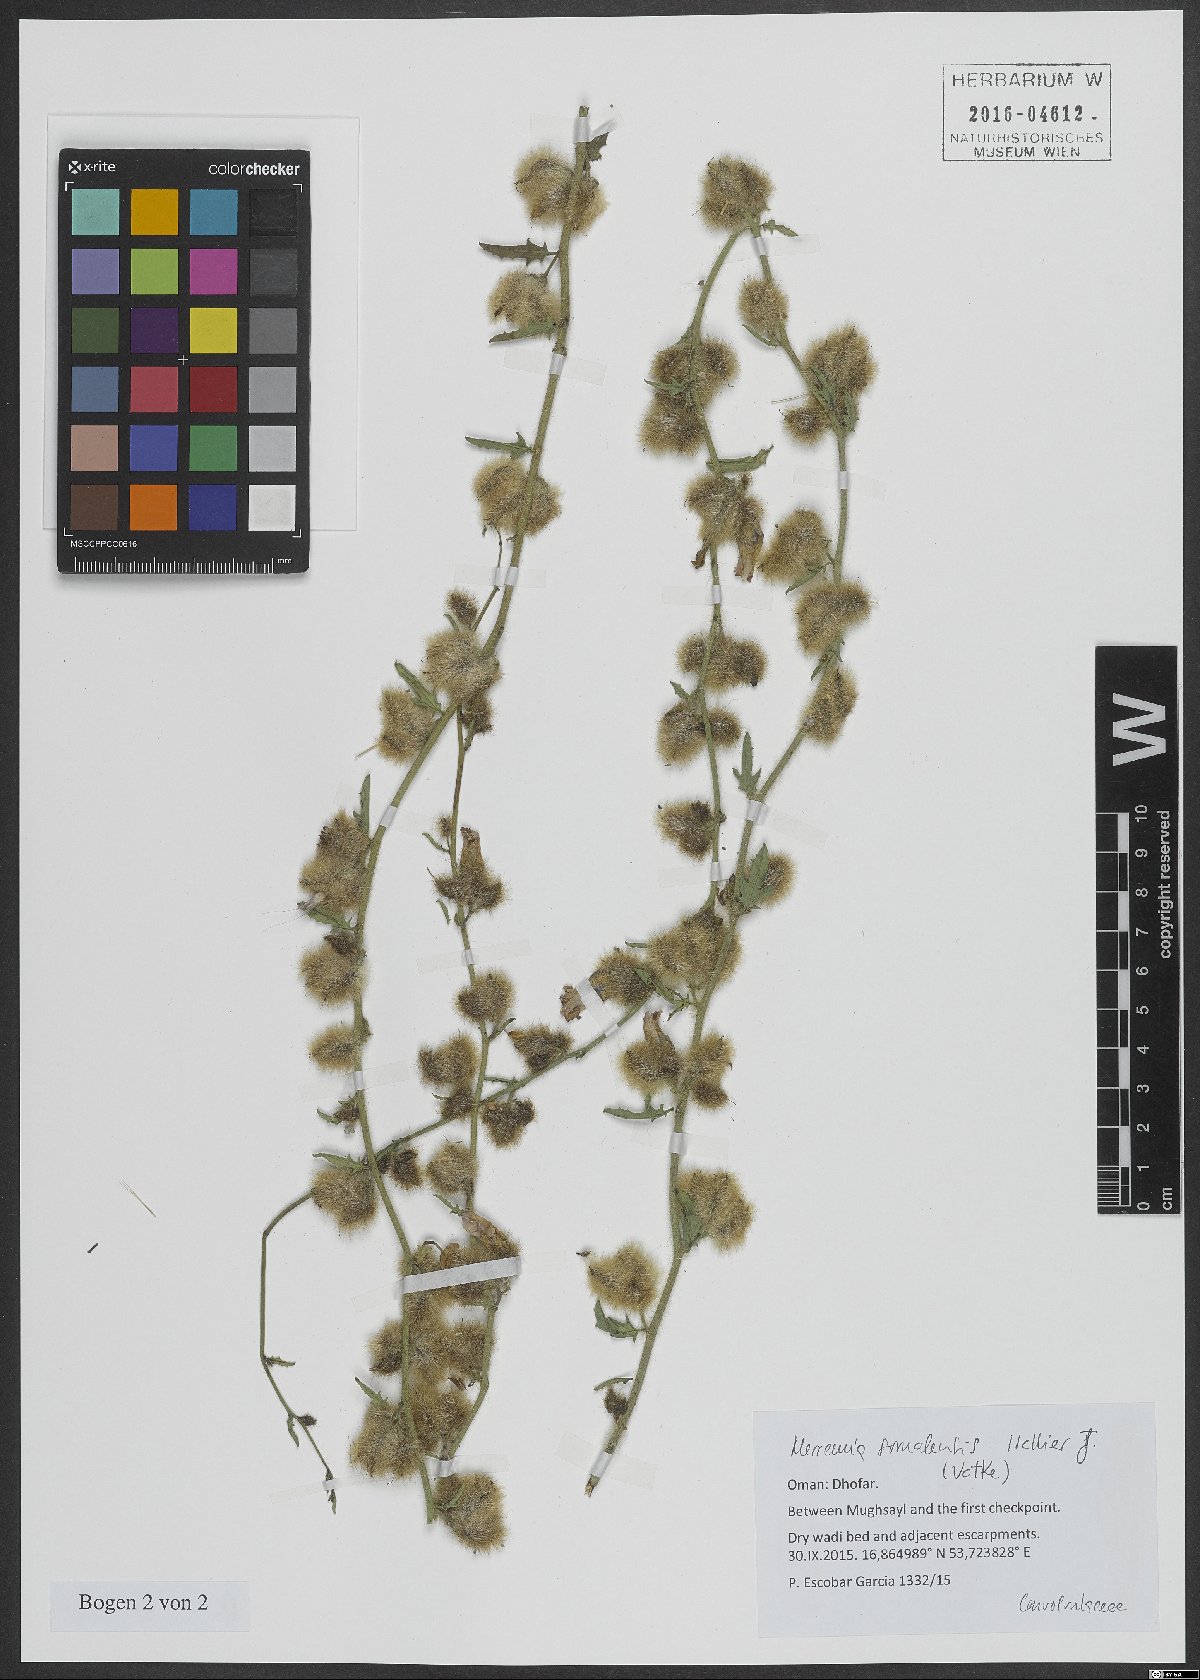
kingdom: Plantae
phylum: Tracheophyta
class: Magnoliopsida
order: Solanales
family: Convolvulaceae
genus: Distimake
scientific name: Distimake somalensis
